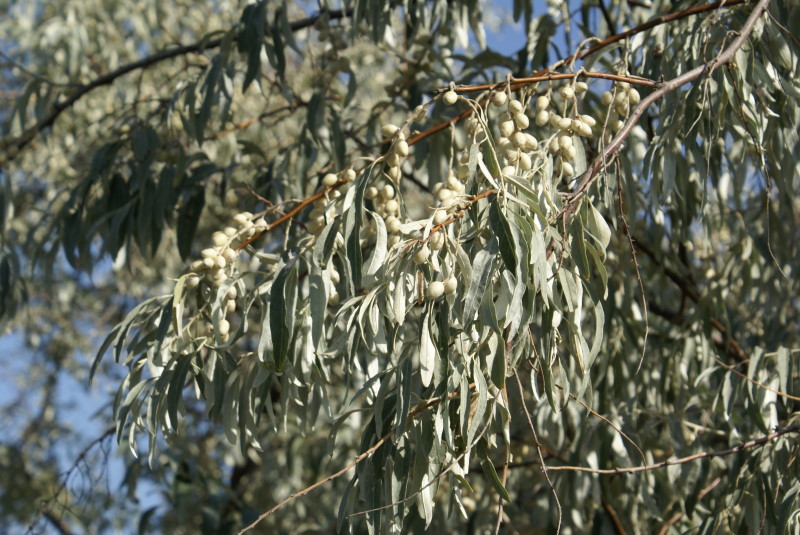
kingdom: Plantae
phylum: Tracheophyta
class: Magnoliopsida
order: Rosales
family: Elaeagnaceae
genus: Elaeagnus
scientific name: Elaeagnus angustifolia
